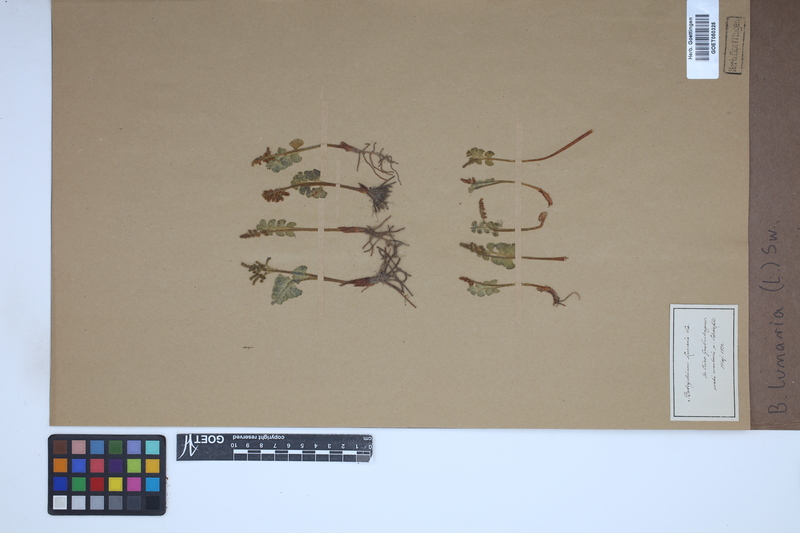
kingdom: Plantae
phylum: Tracheophyta
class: Polypodiopsida
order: Ophioglossales
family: Ophioglossaceae
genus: Botrychium
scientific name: Botrychium lunaria
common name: Moonwort
